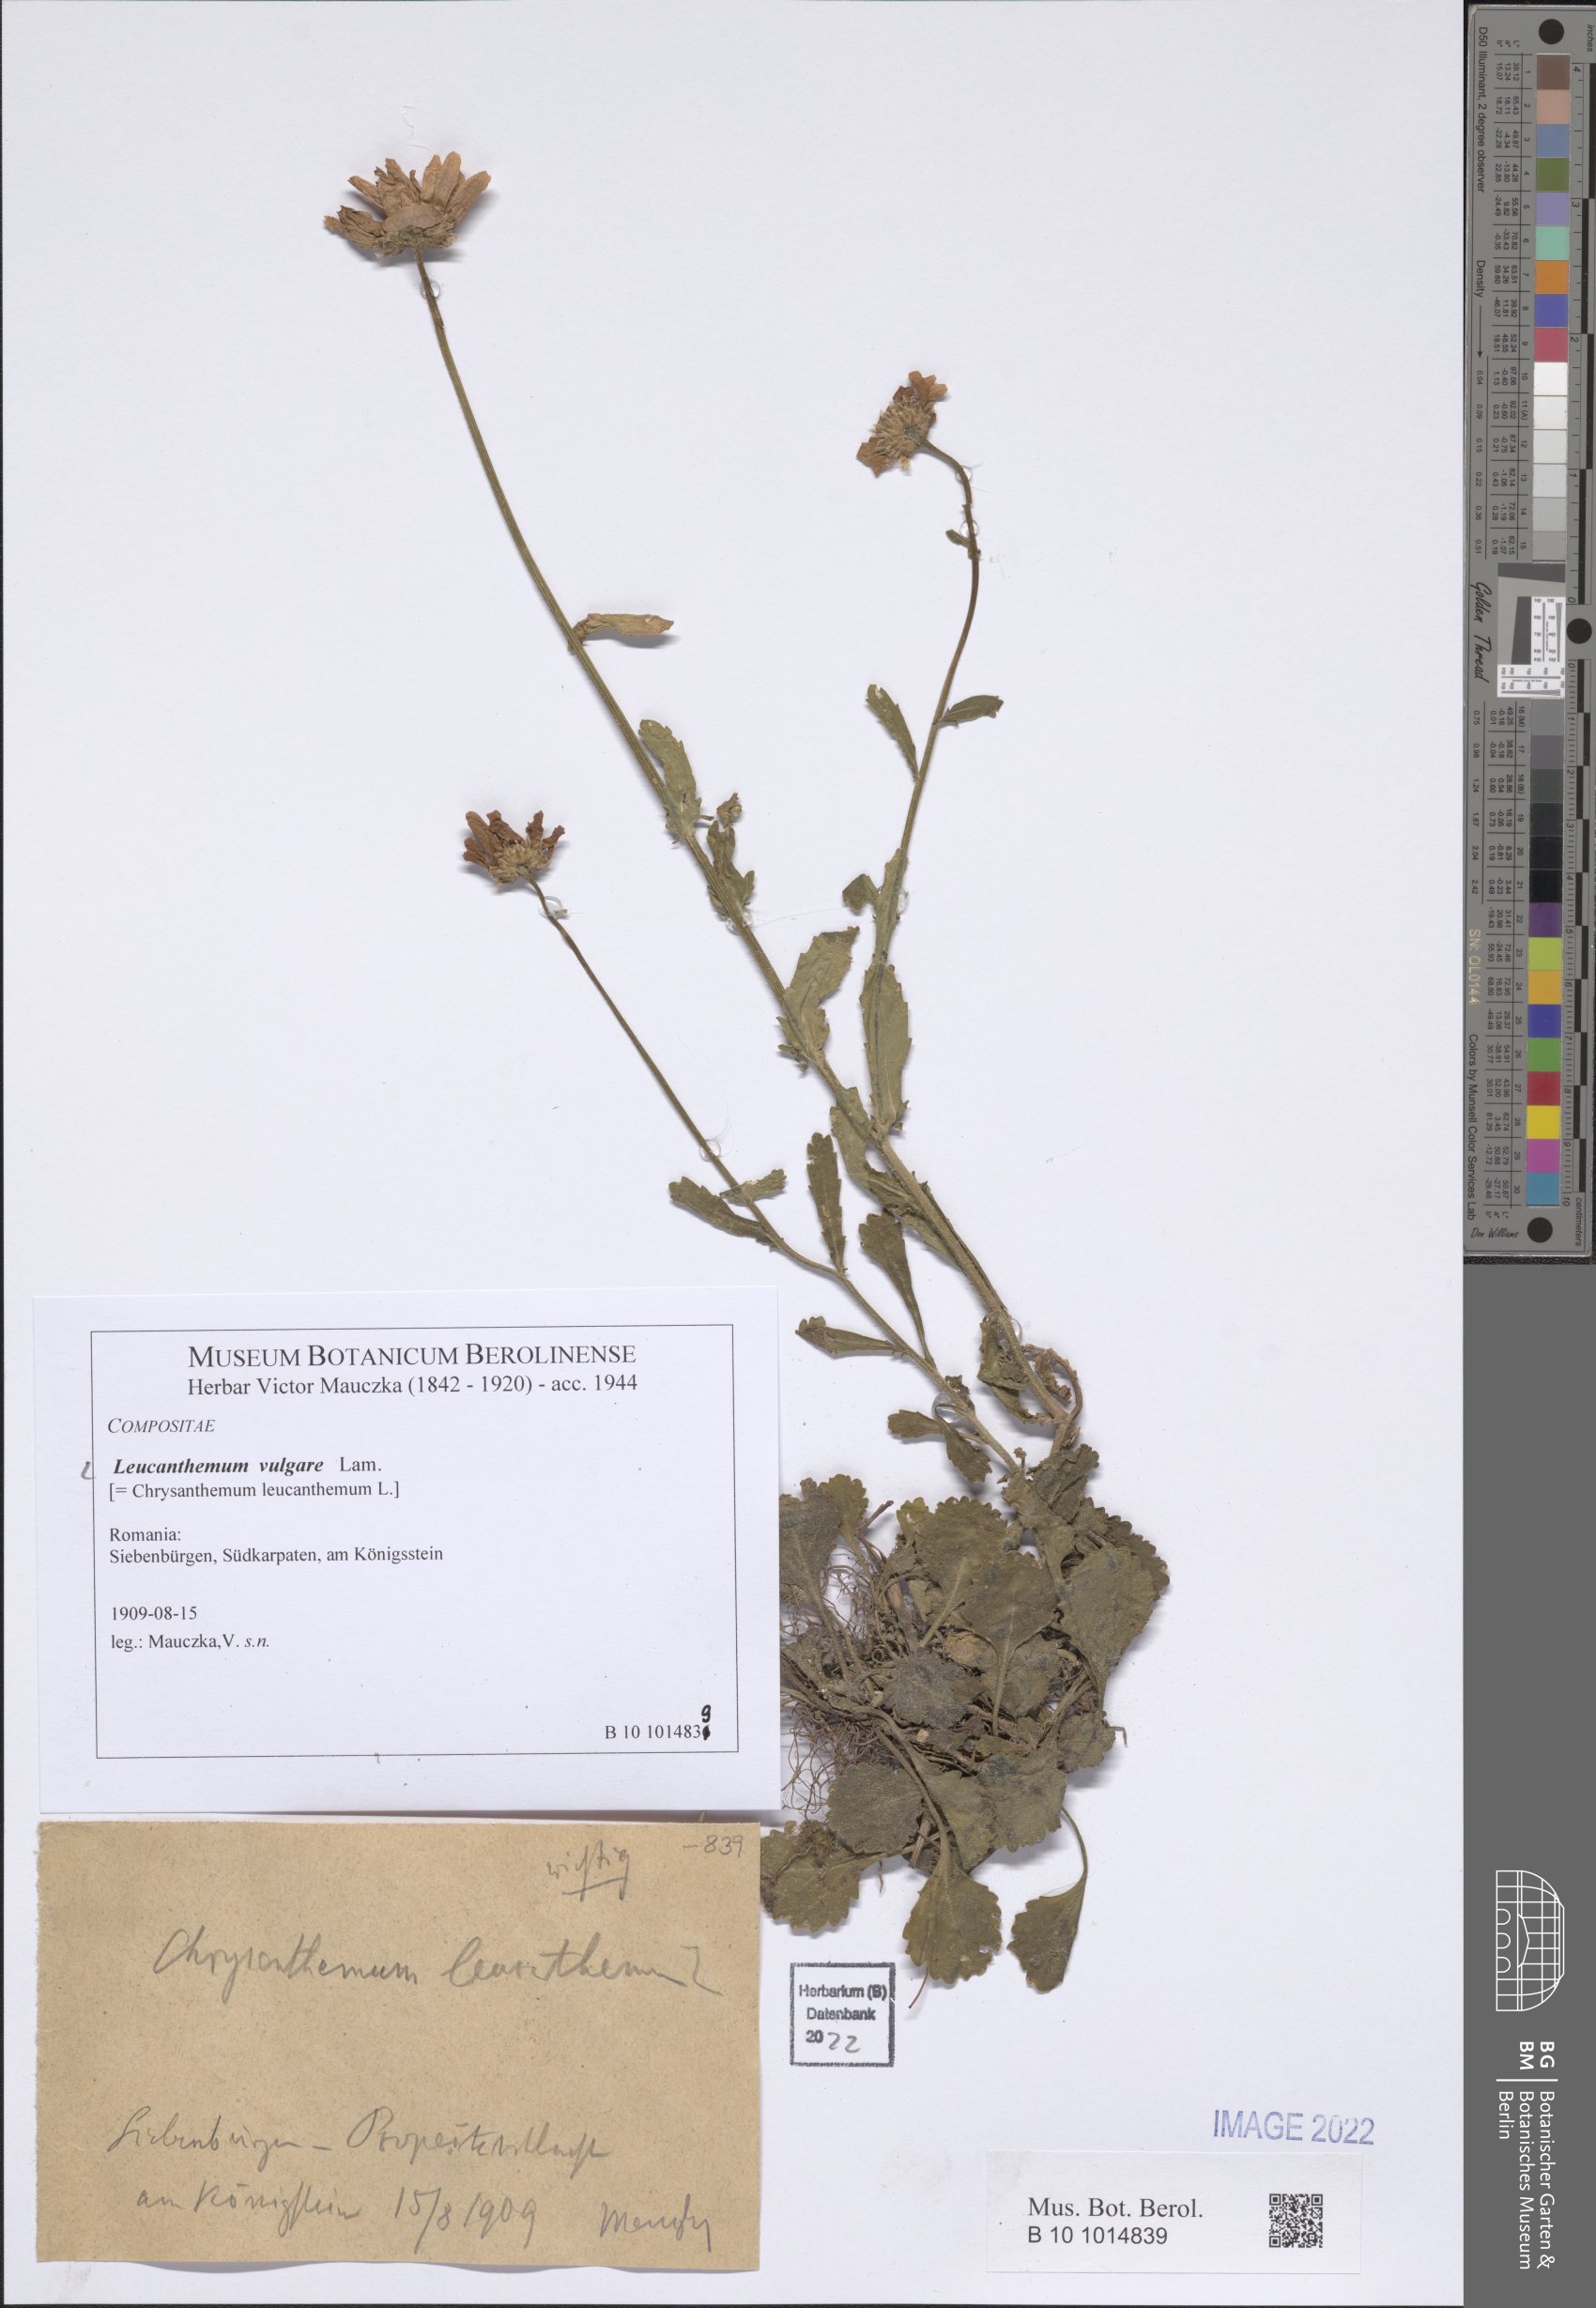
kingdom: Plantae
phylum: Tracheophyta
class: Magnoliopsida
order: Asterales
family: Asteraceae
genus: Leucanthemum
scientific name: Leucanthemum ircutianum
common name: Daisy
